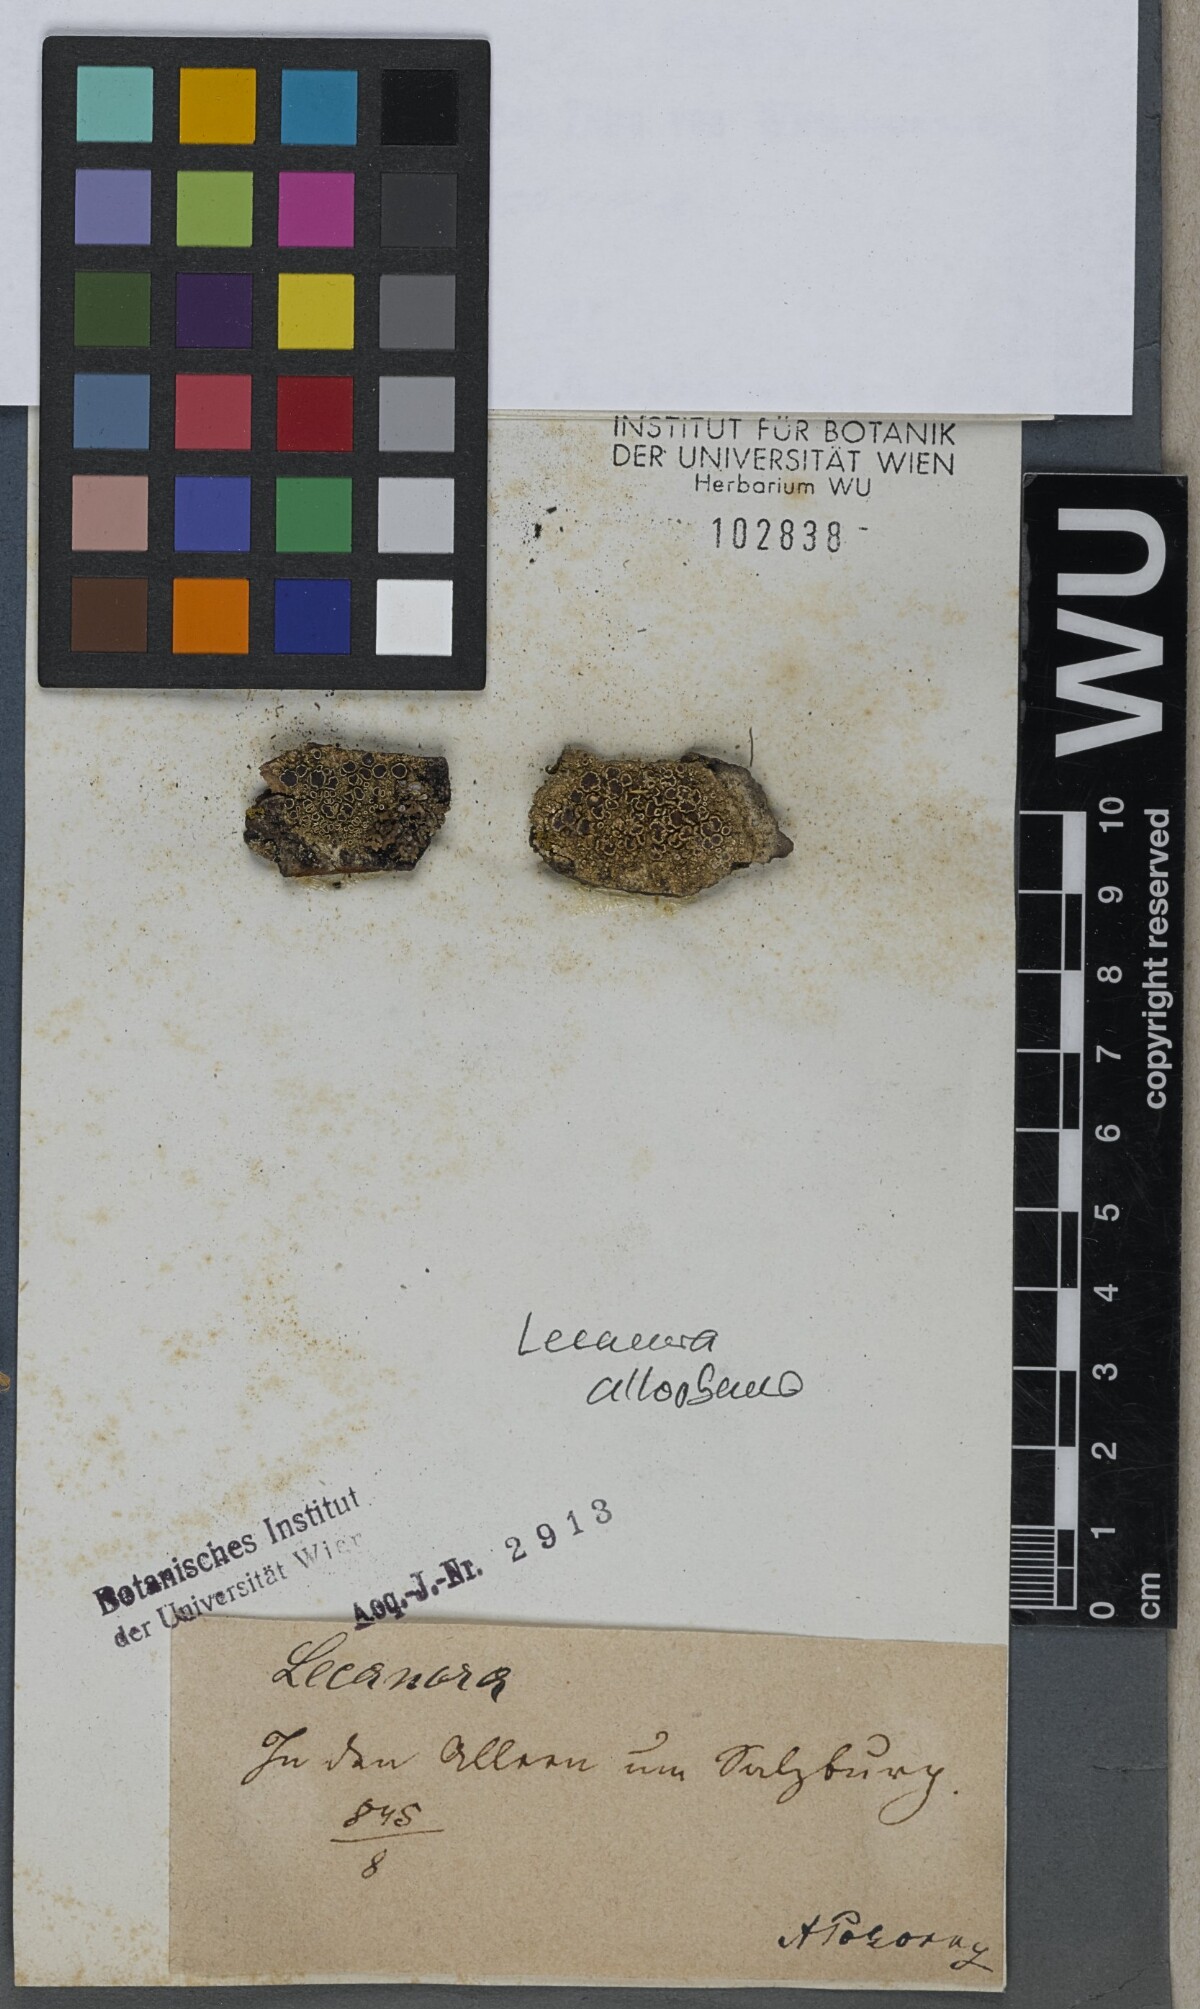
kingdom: Fungi
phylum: Ascomycota
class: Lecanoromycetes
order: Lecanorales
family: Lecanoraceae
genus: Lecanora
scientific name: Lecanora
